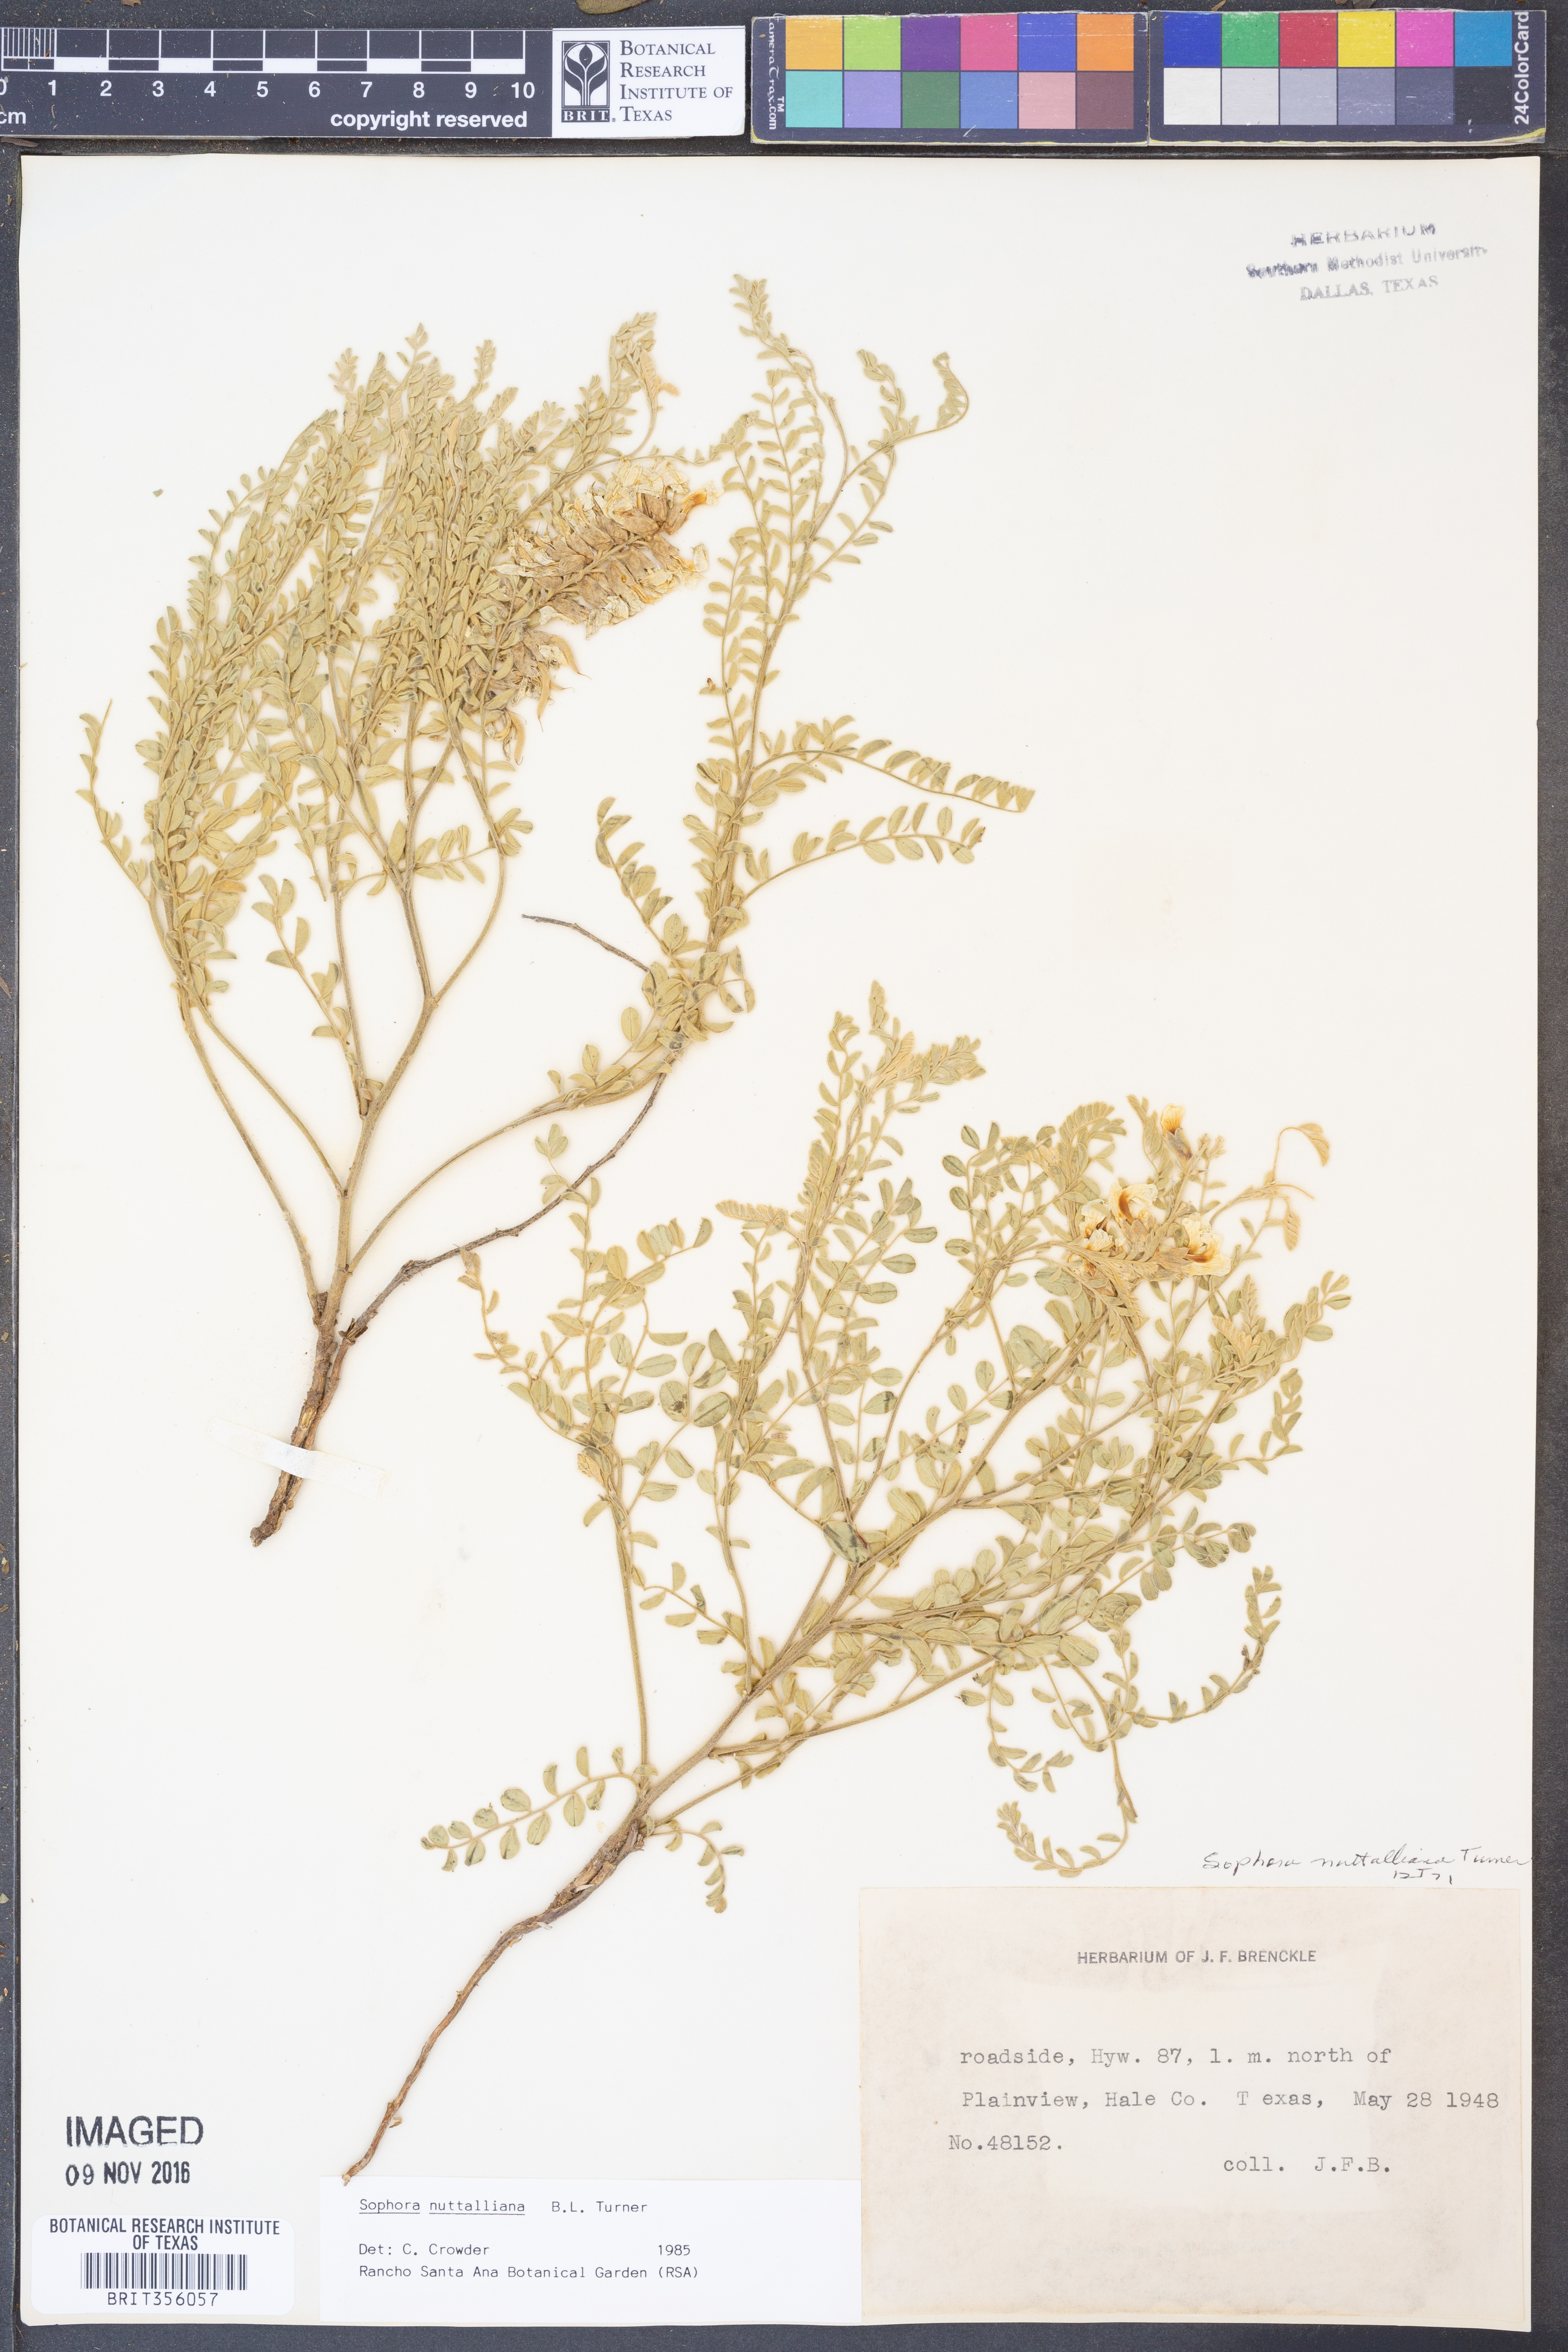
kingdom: Plantae
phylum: Tracheophyta
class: Magnoliopsida
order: Fabales
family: Fabaceae
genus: Sophora
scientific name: Sophora nuttalliana
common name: Silky sophora
